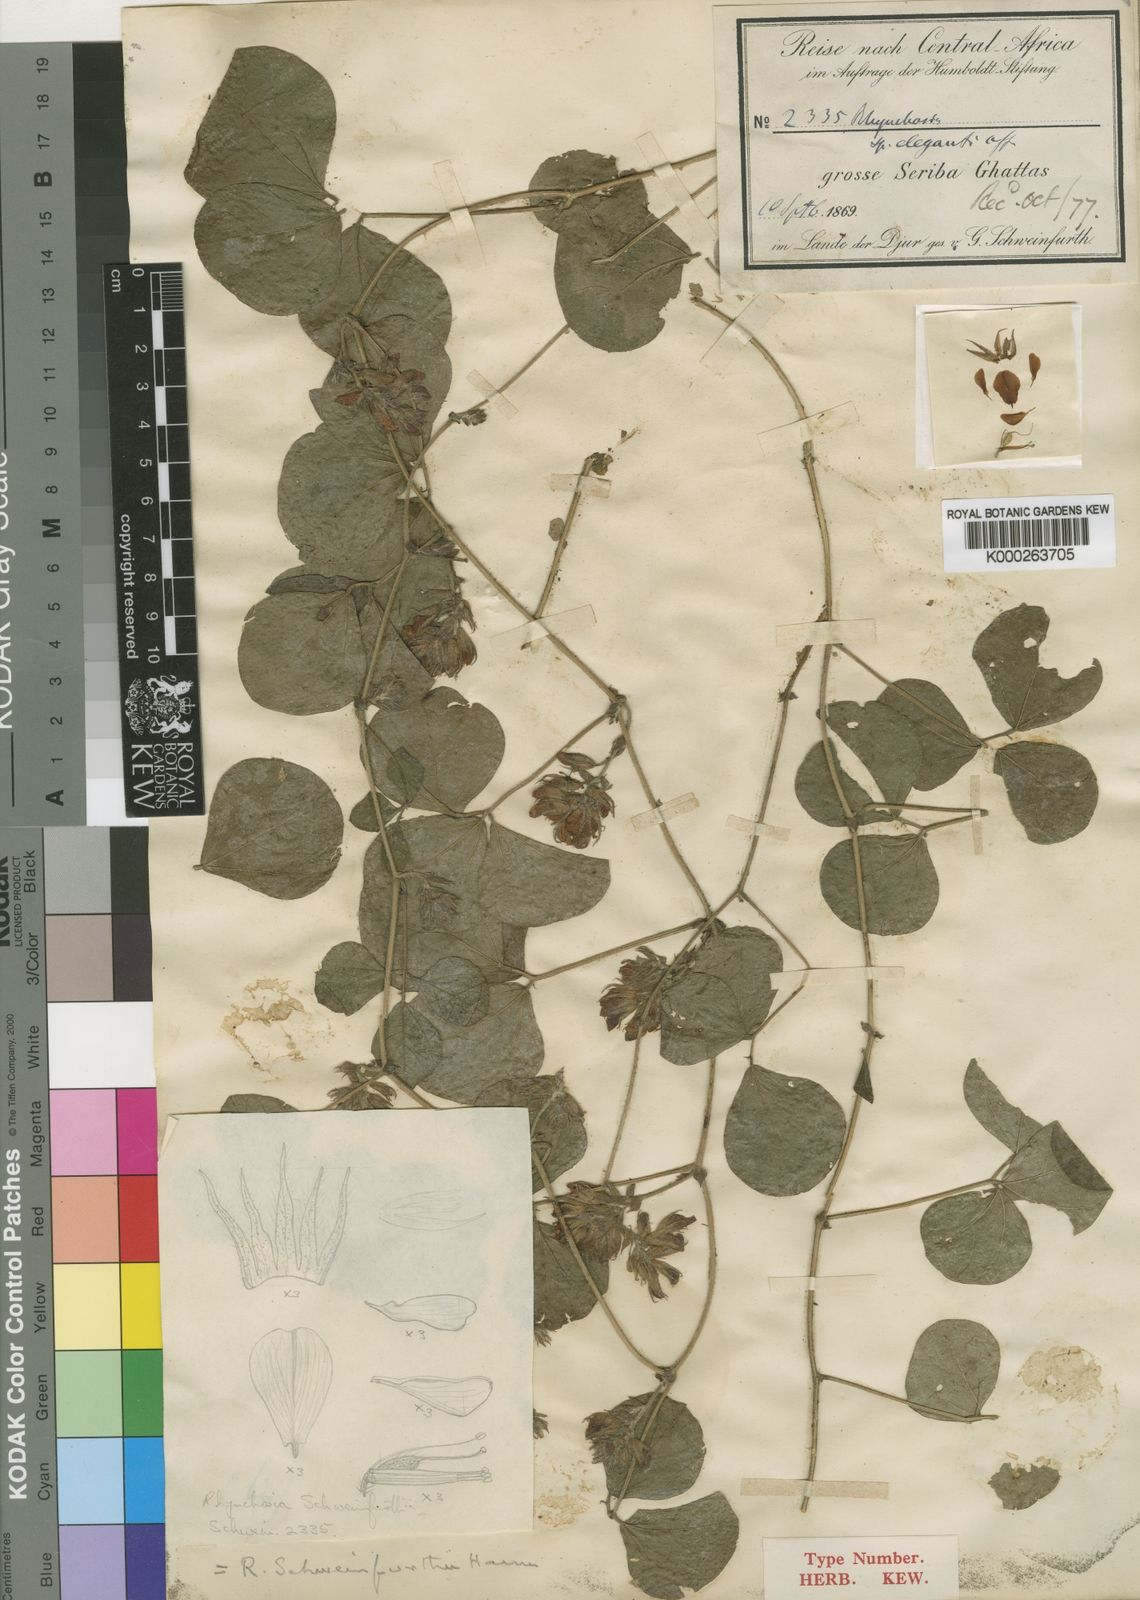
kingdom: Plantae
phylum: Tracheophyta
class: Magnoliopsida
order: Fabales
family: Fabaceae
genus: Rhynchosia
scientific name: Rhynchosia densiflora
